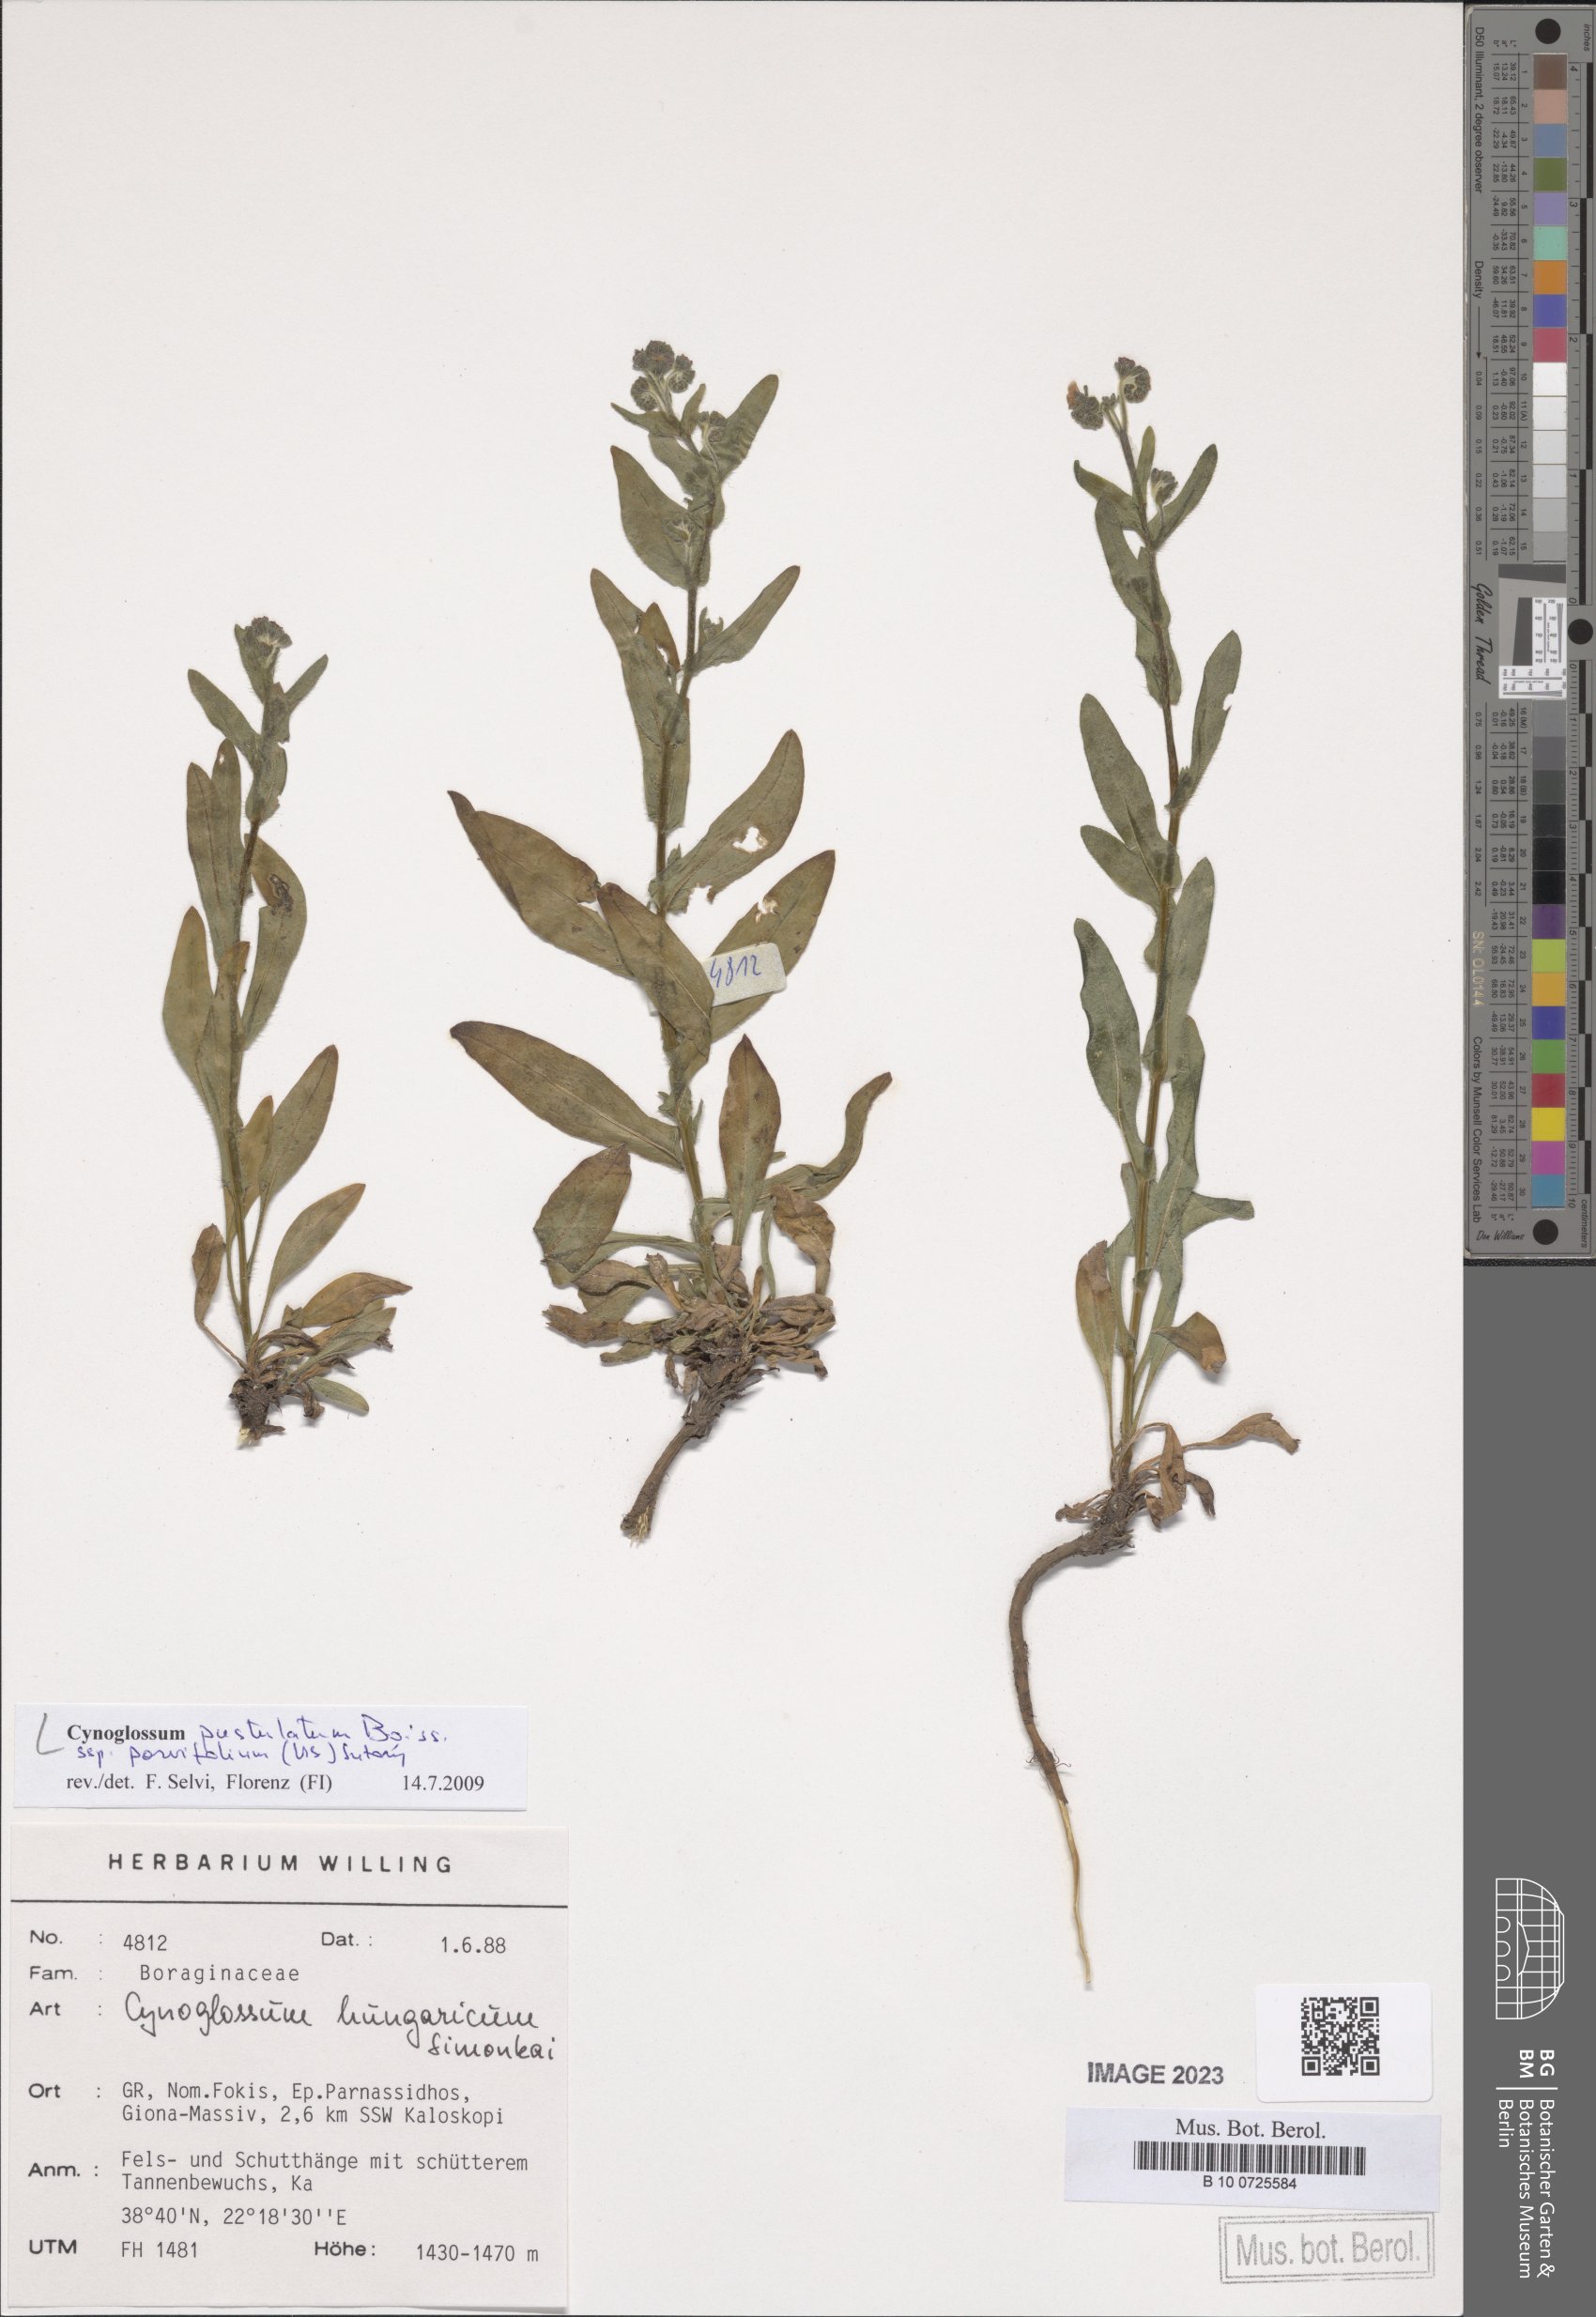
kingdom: Plantae
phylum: Tracheophyta
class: Magnoliopsida
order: Boraginales
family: Boraginaceae
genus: Cynoglossum
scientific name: Cynoglossum pustulatum
